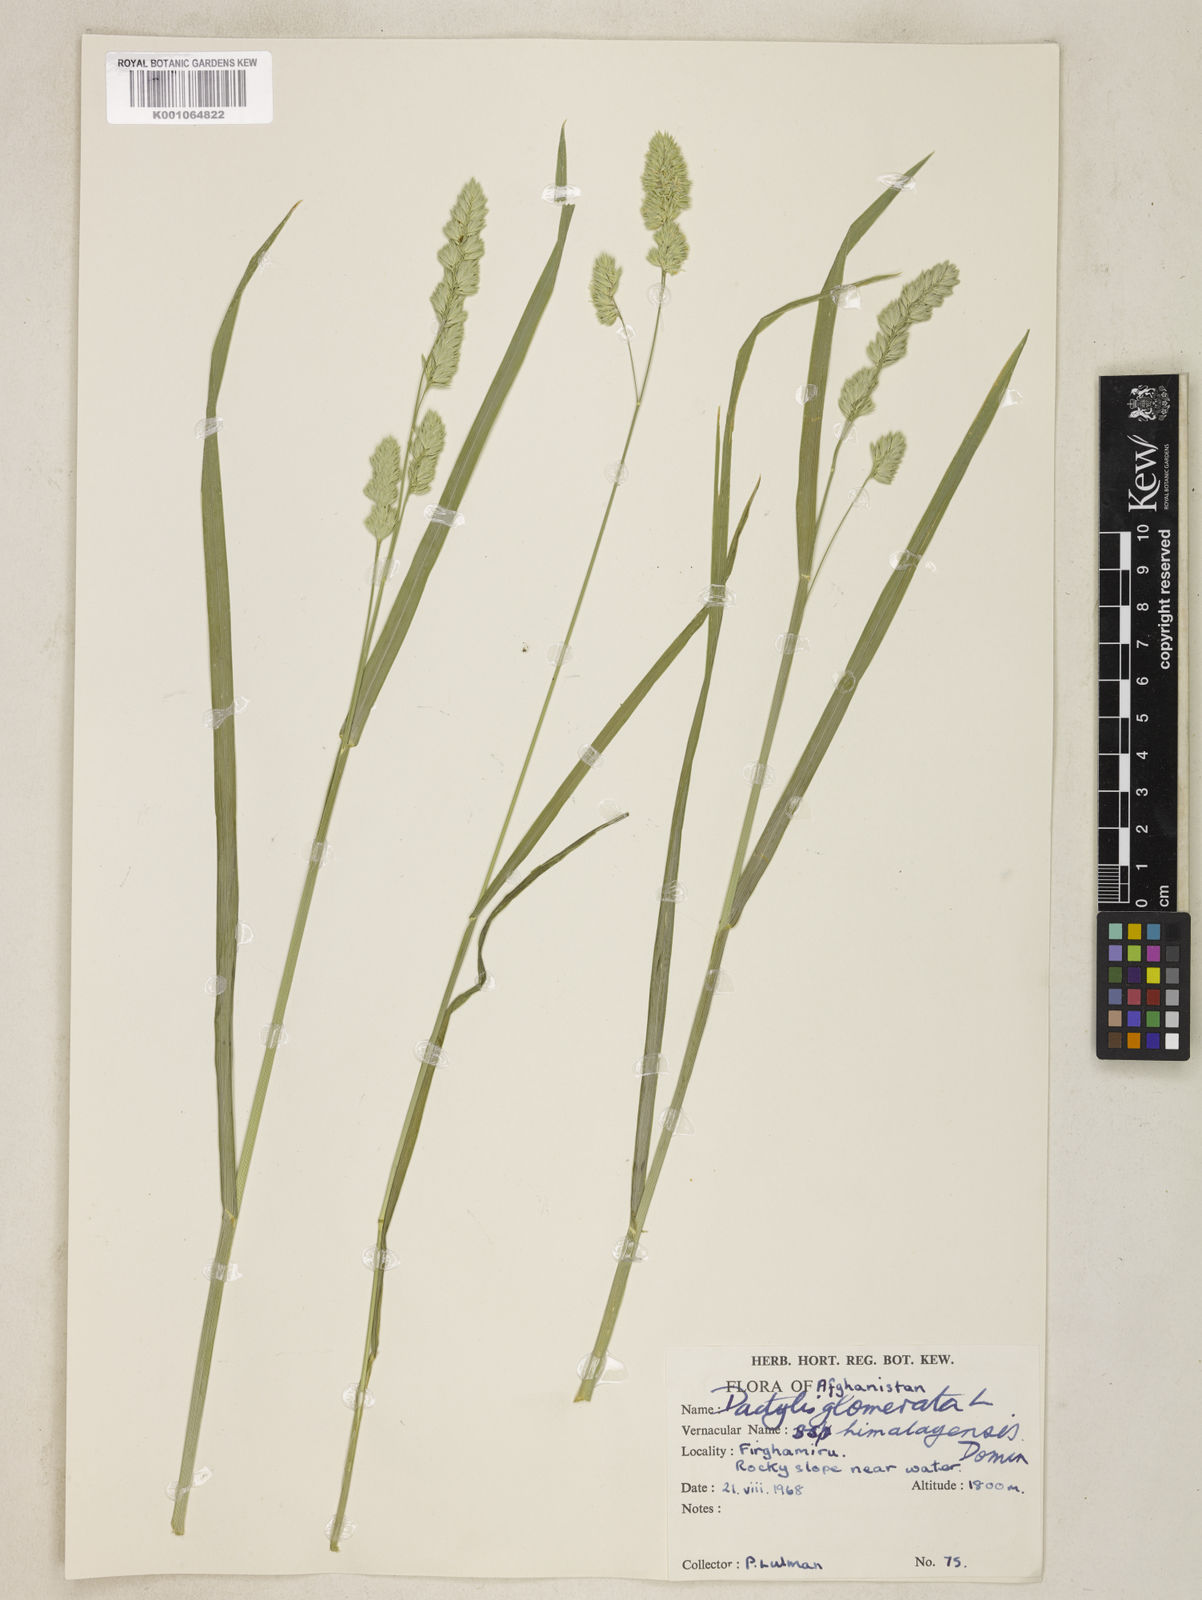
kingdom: Plantae
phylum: Tracheophyta
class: Liliopsida
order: Poales
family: Poaceae
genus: Dactylis
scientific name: Dactylis glomerata
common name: Orchardgrass
